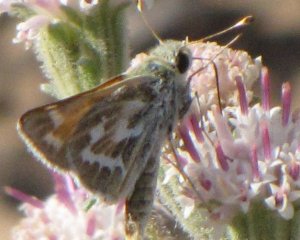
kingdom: Animalia
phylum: Arthropoda
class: Insecta
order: Lepidoptera
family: Hesperiidae
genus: Hesperia
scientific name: Hesperia comma
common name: Western Branded Skipper
